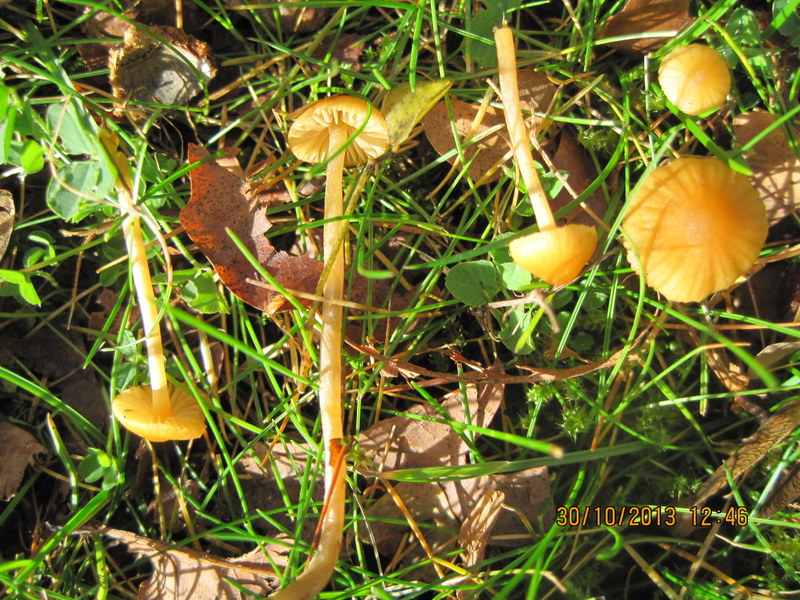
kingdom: Fungi
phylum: Basidiomycota
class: Agaricomycetes
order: Agaricales
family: Hymenogastraceae
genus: Galerina
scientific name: Galerina clavata
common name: kær-hjelmhat
